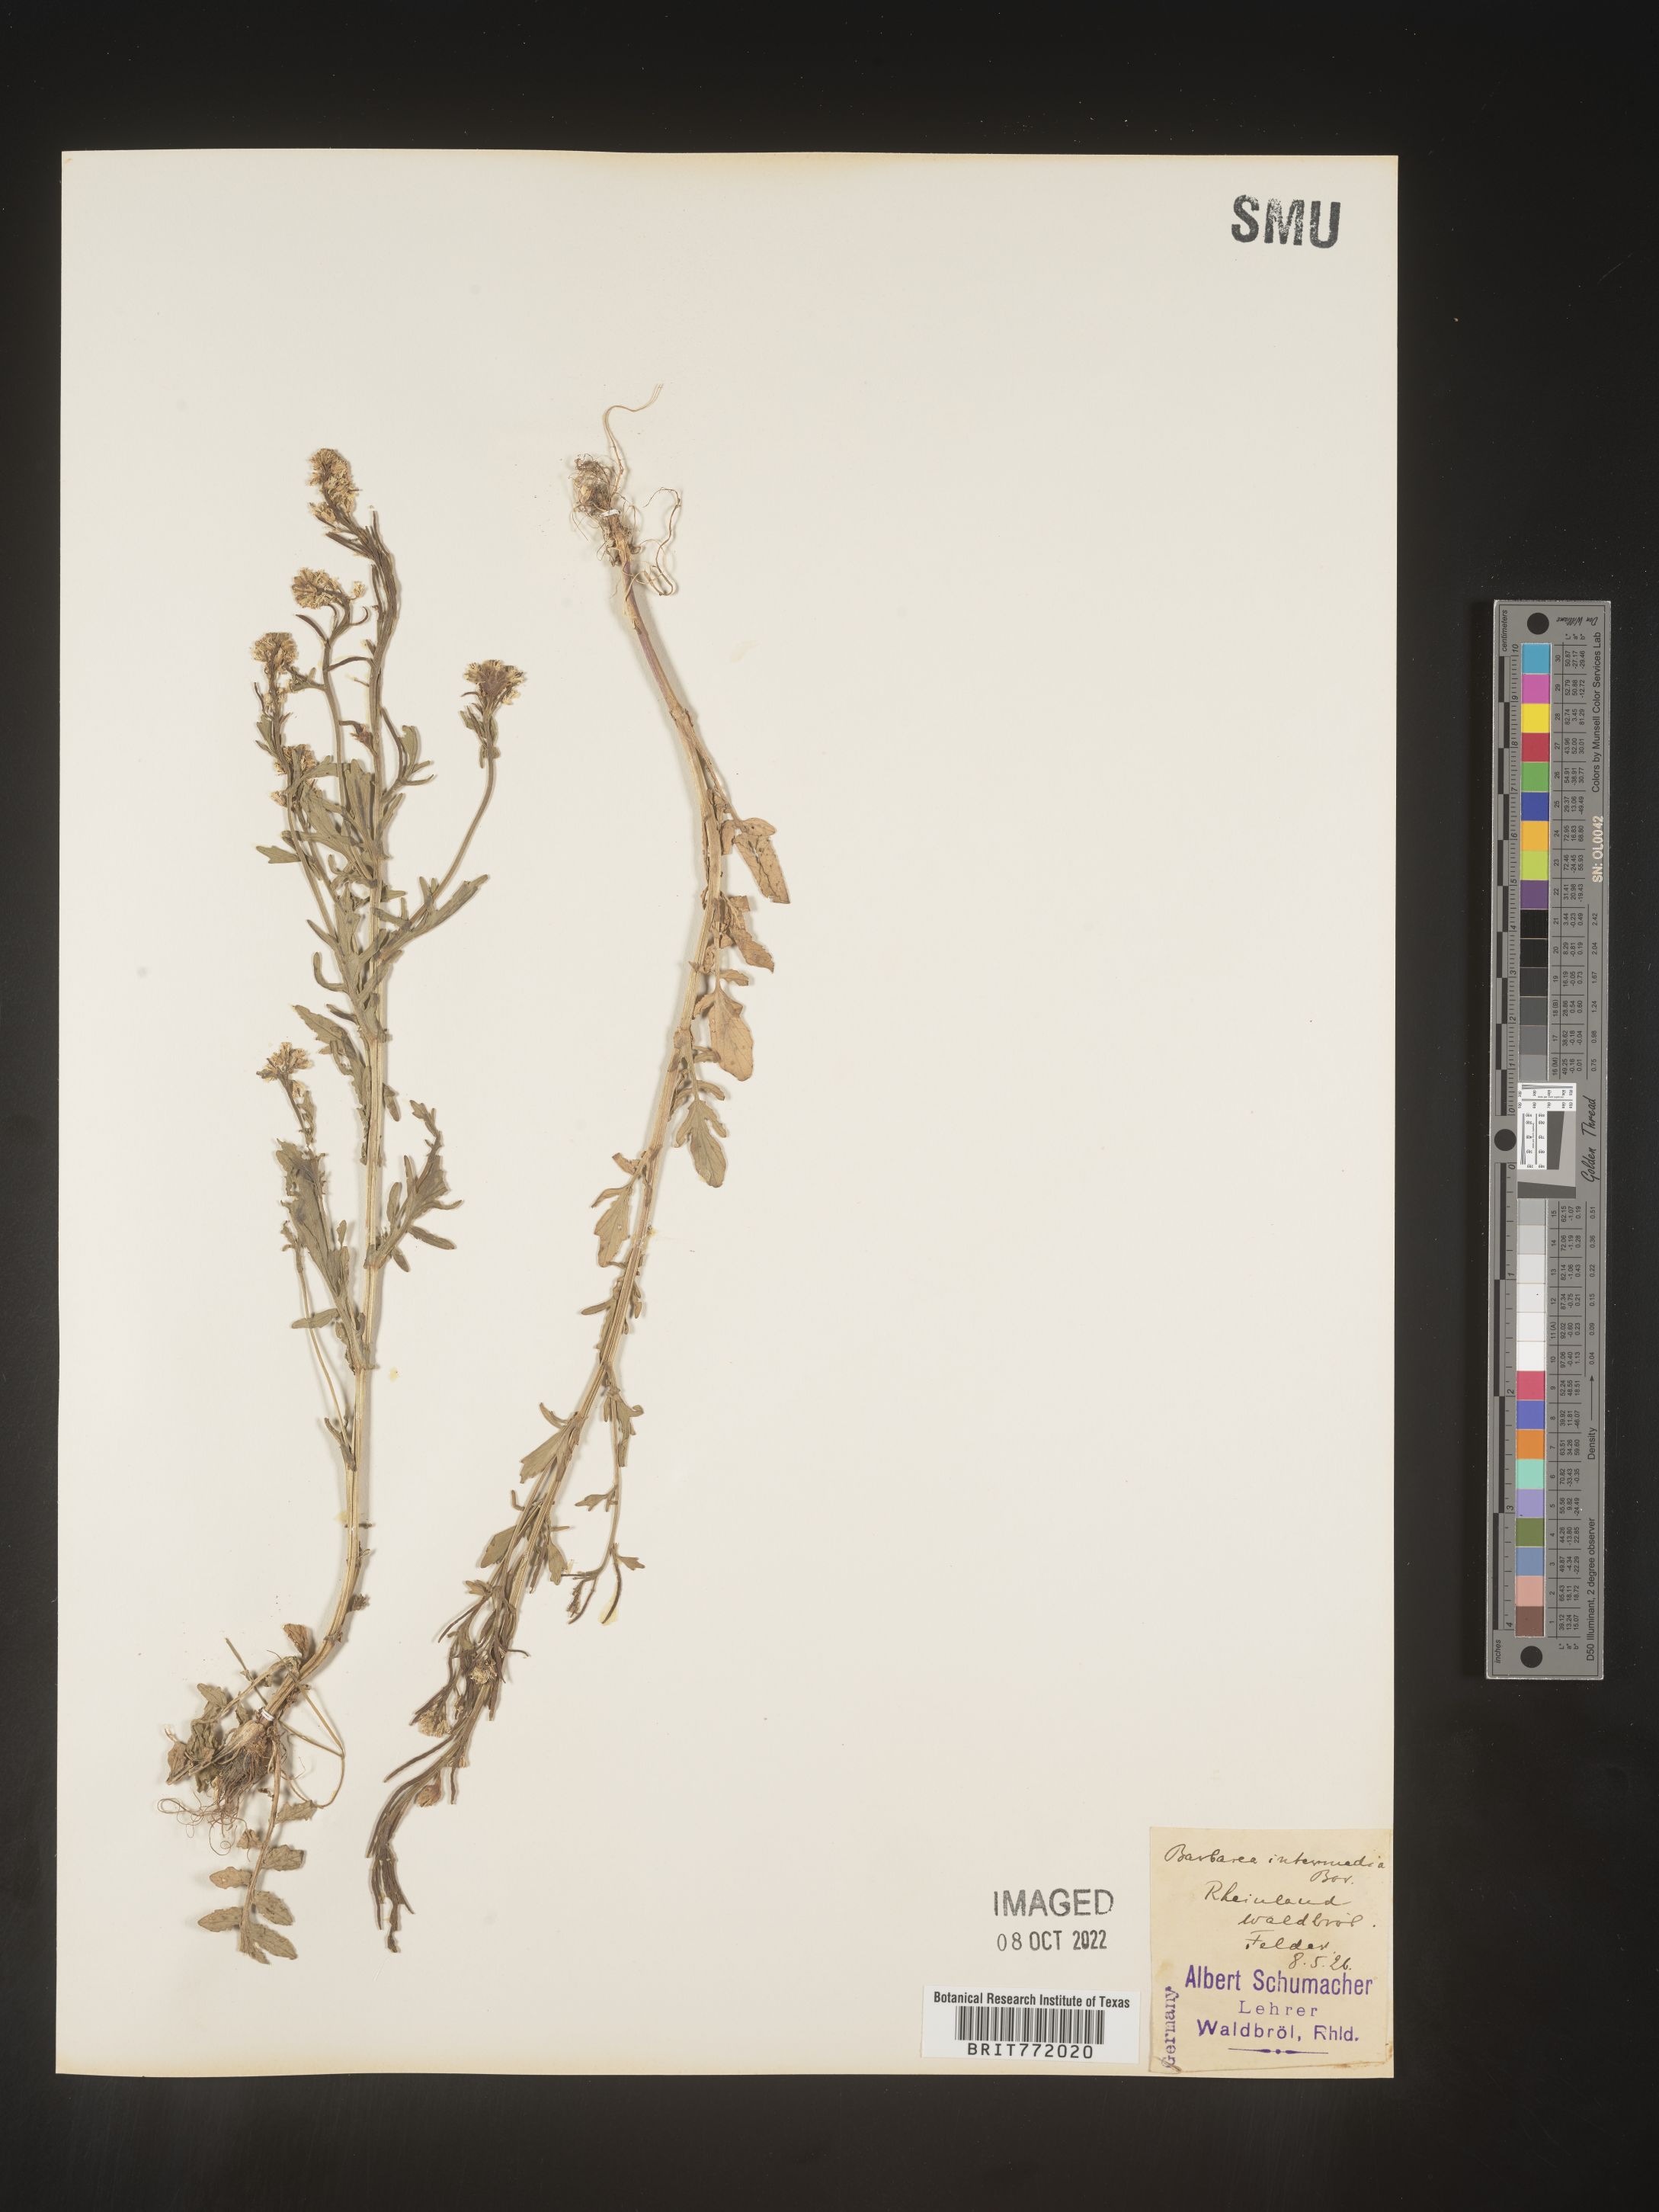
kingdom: Plantae
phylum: Tracheophyta
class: Magnoliopsida
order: Brassicales
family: Brassicaceae
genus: Barbarea
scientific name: Barbarea
